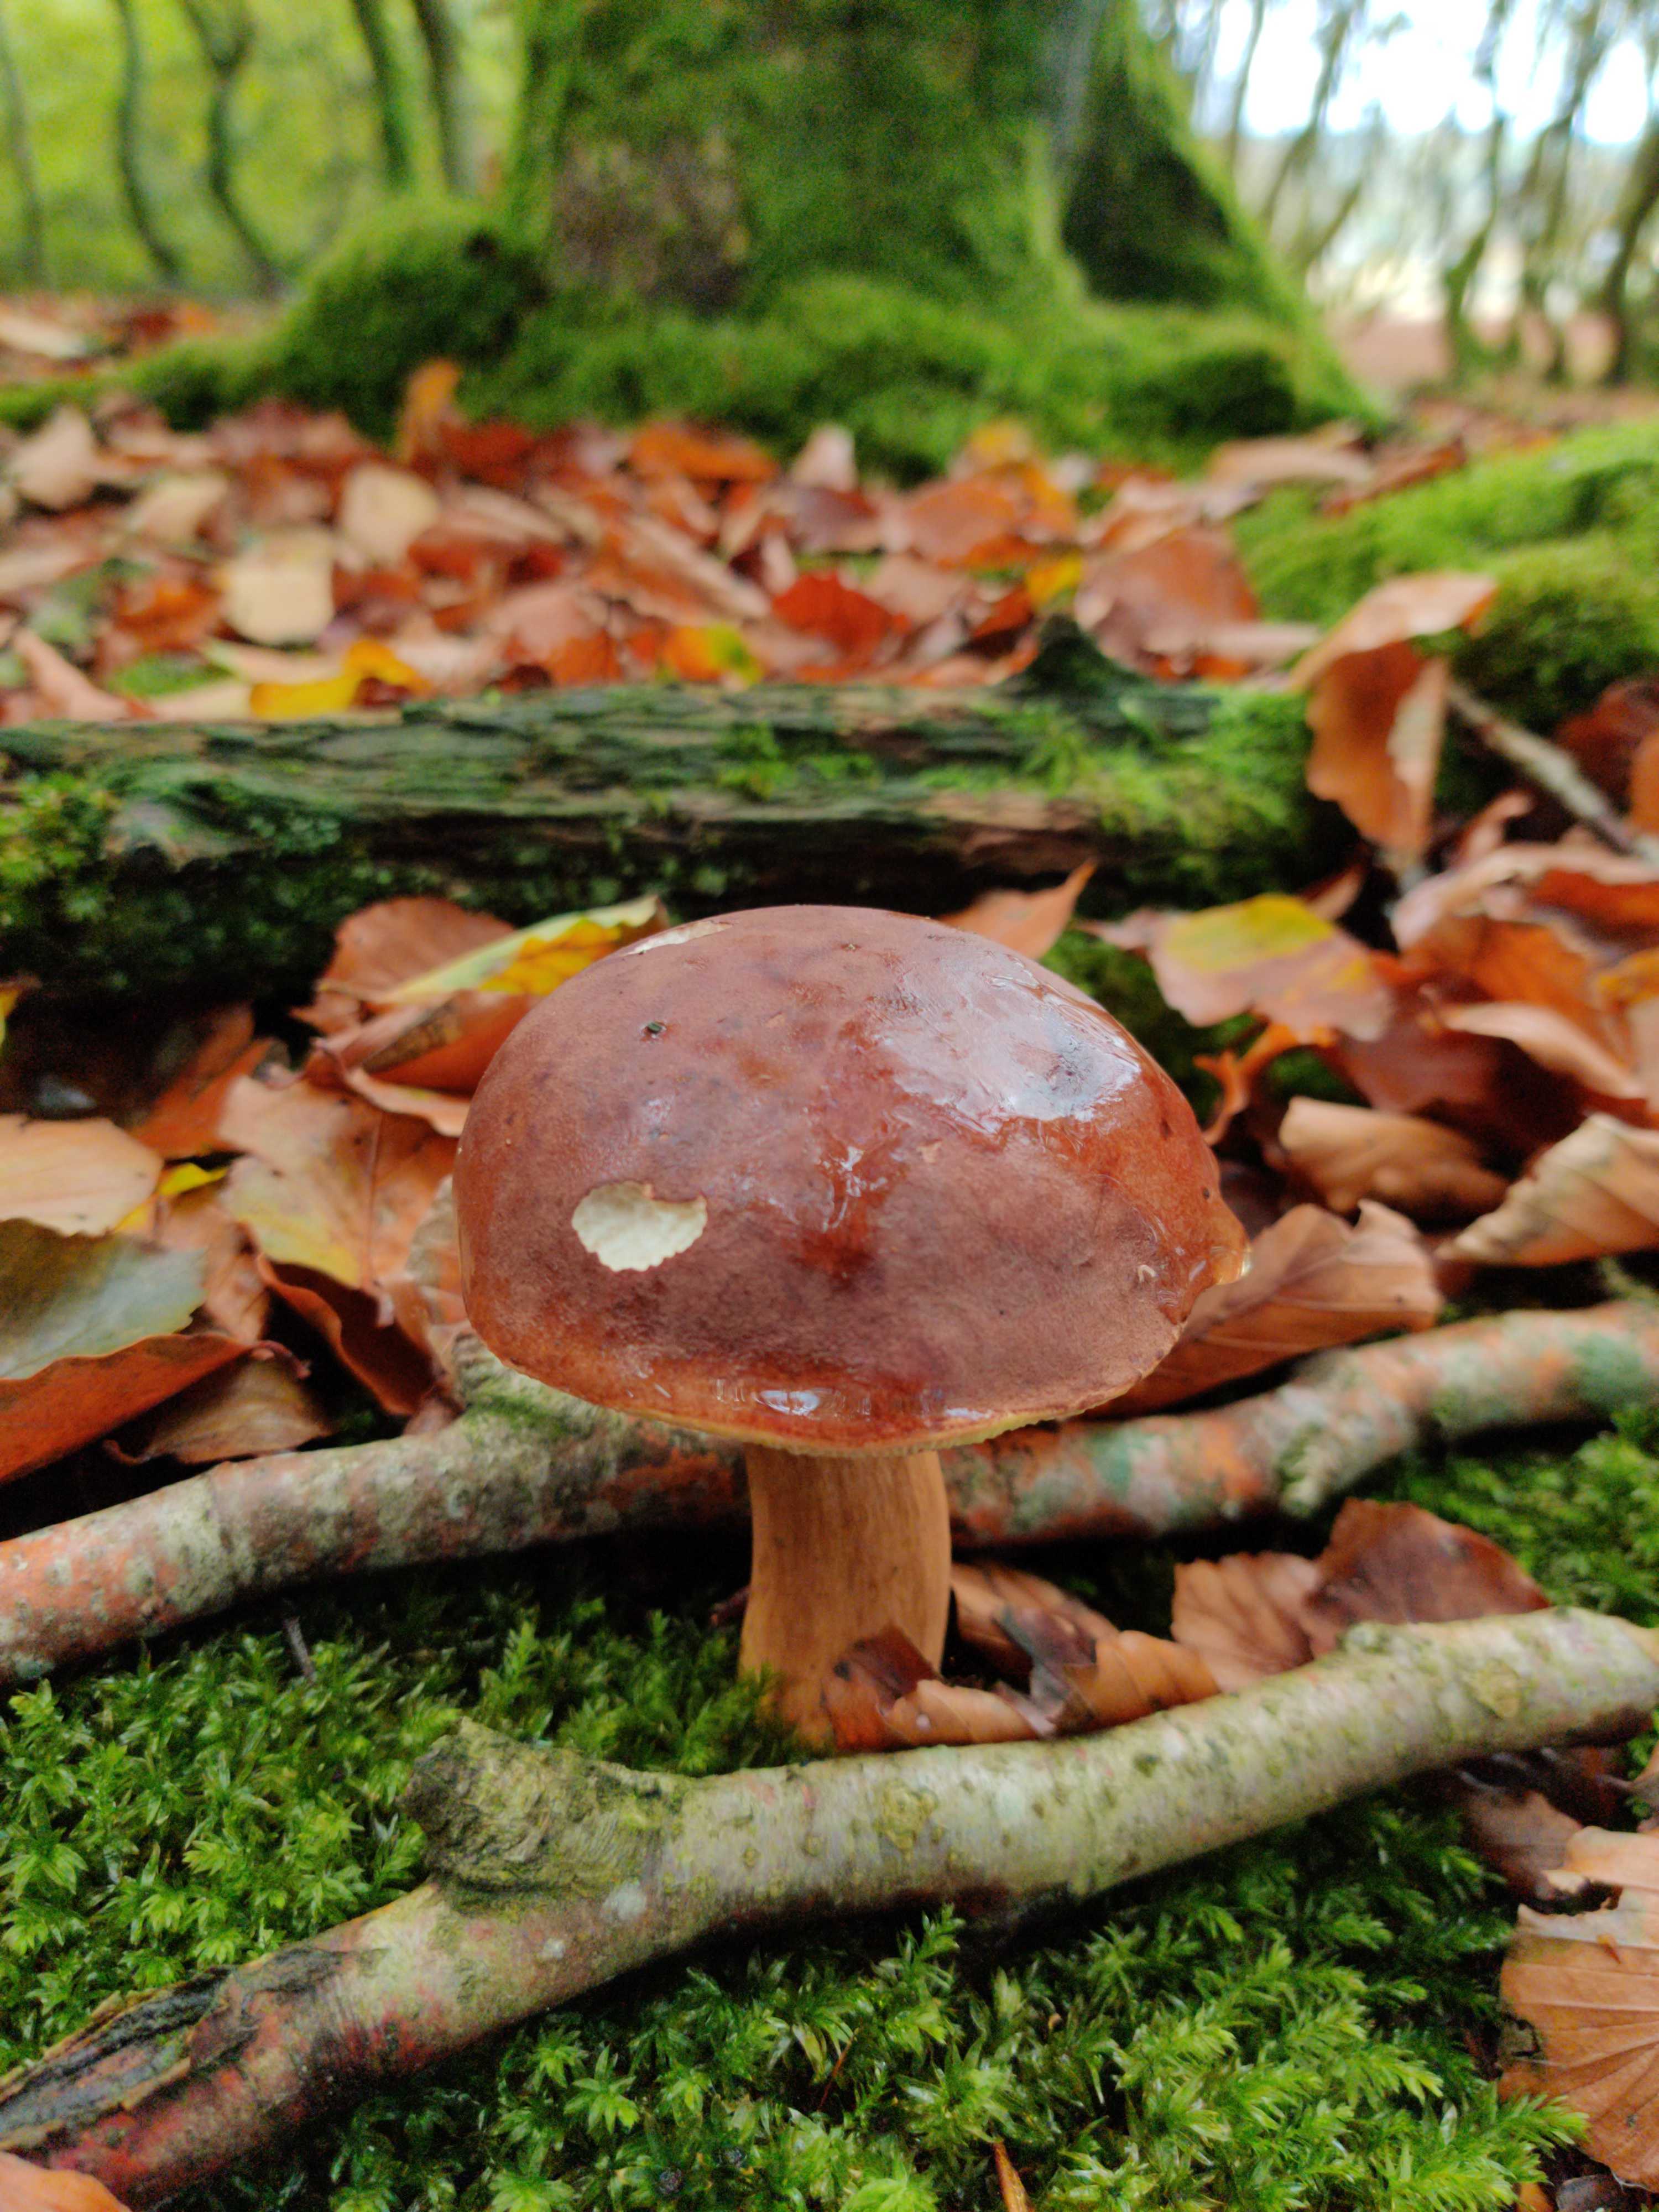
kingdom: Fungi
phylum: Basidiomycota
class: Agaricomycetes
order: Boletales
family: Boletaceae
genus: Imleria
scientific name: Imleria badia
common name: brunstokket rørhat
